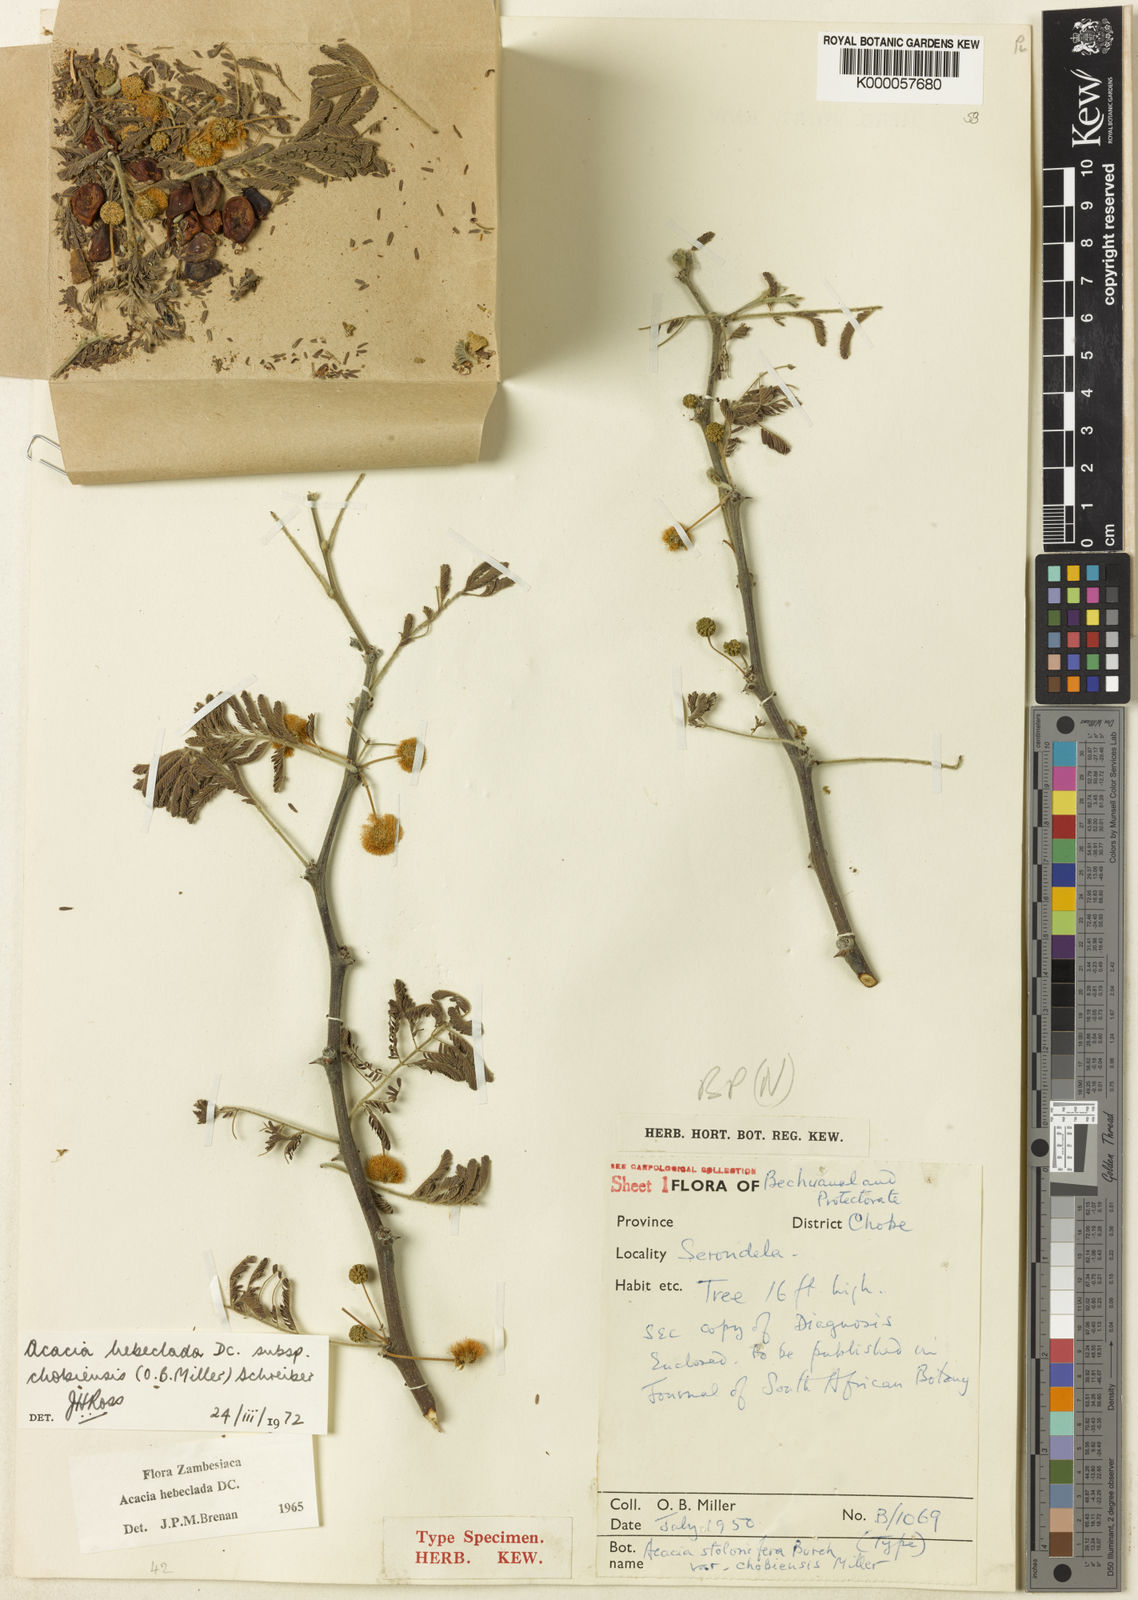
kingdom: Plantae
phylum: Tracheophyta
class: Magnoliopsida
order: Fabales
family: Fabaceae
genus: Vachellia
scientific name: Vachellia hebeclada
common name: Candle thorn
